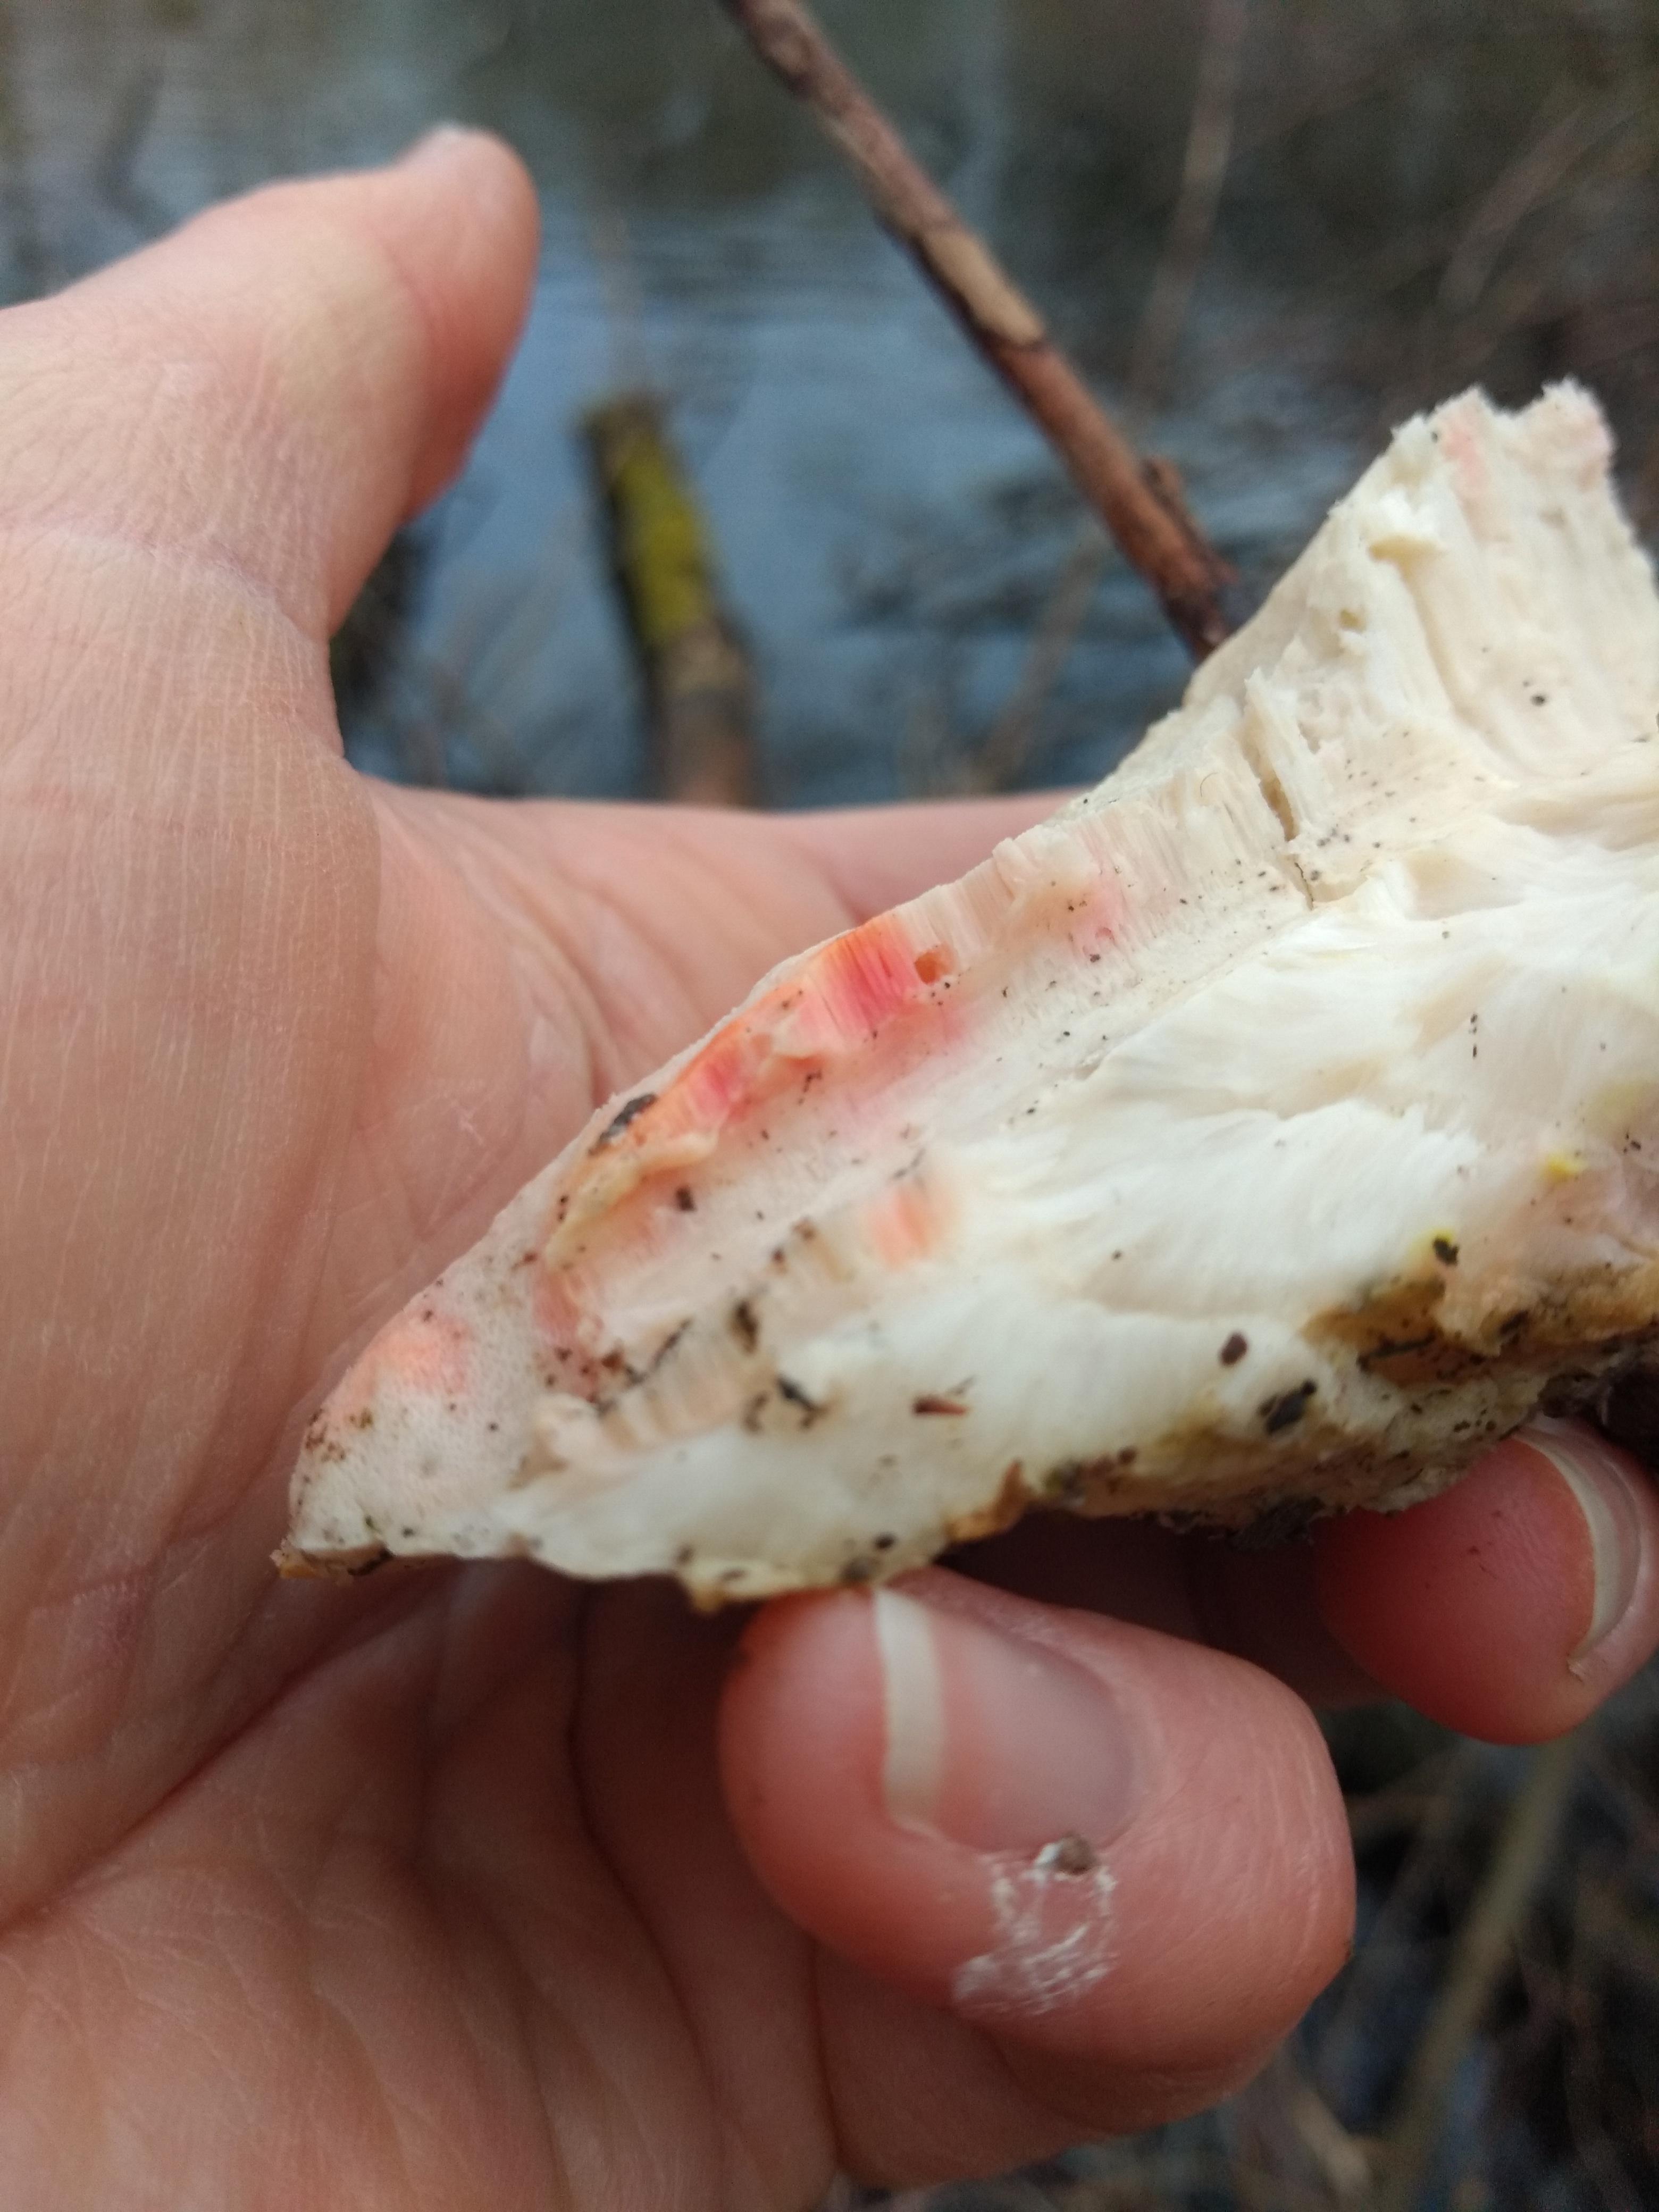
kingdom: Fungi
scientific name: Fungi
